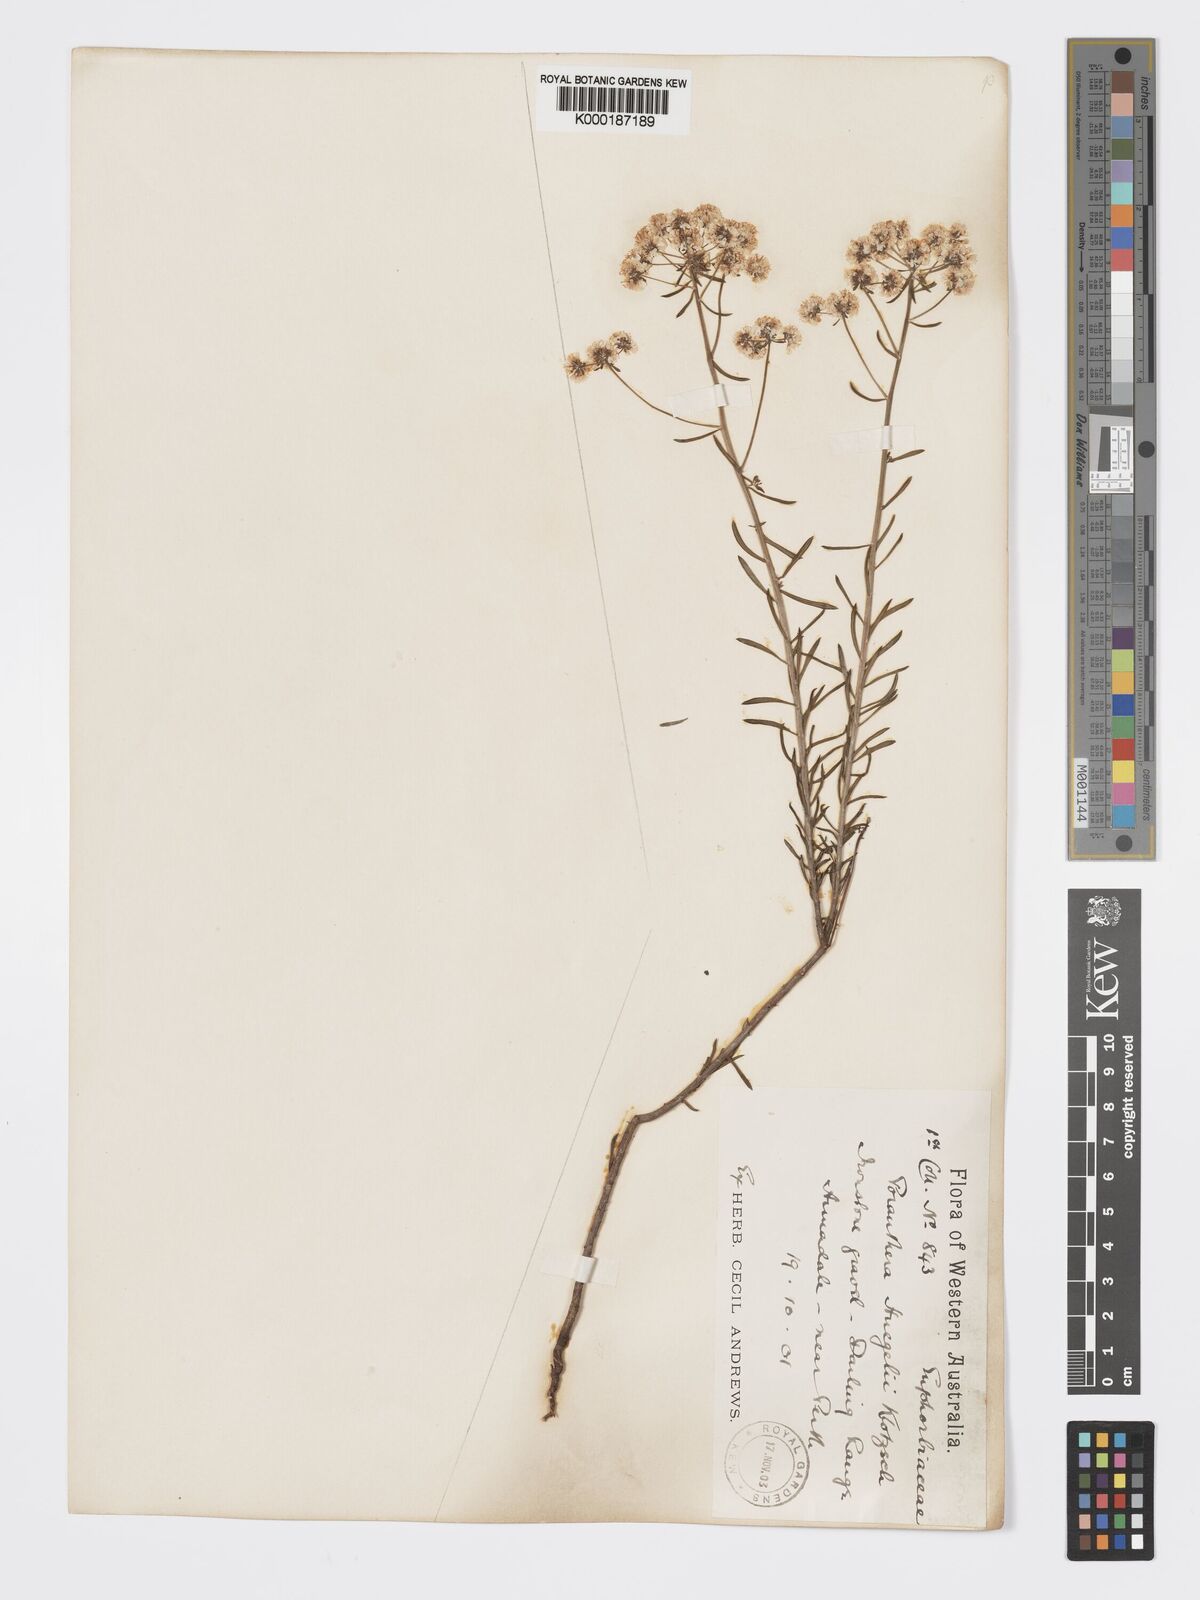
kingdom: Plantae
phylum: Tracheophyta
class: Magnoliopsida
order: Malpighiales
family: Phyllanthaceae
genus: Poranthera
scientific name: Poranthera huegelii
